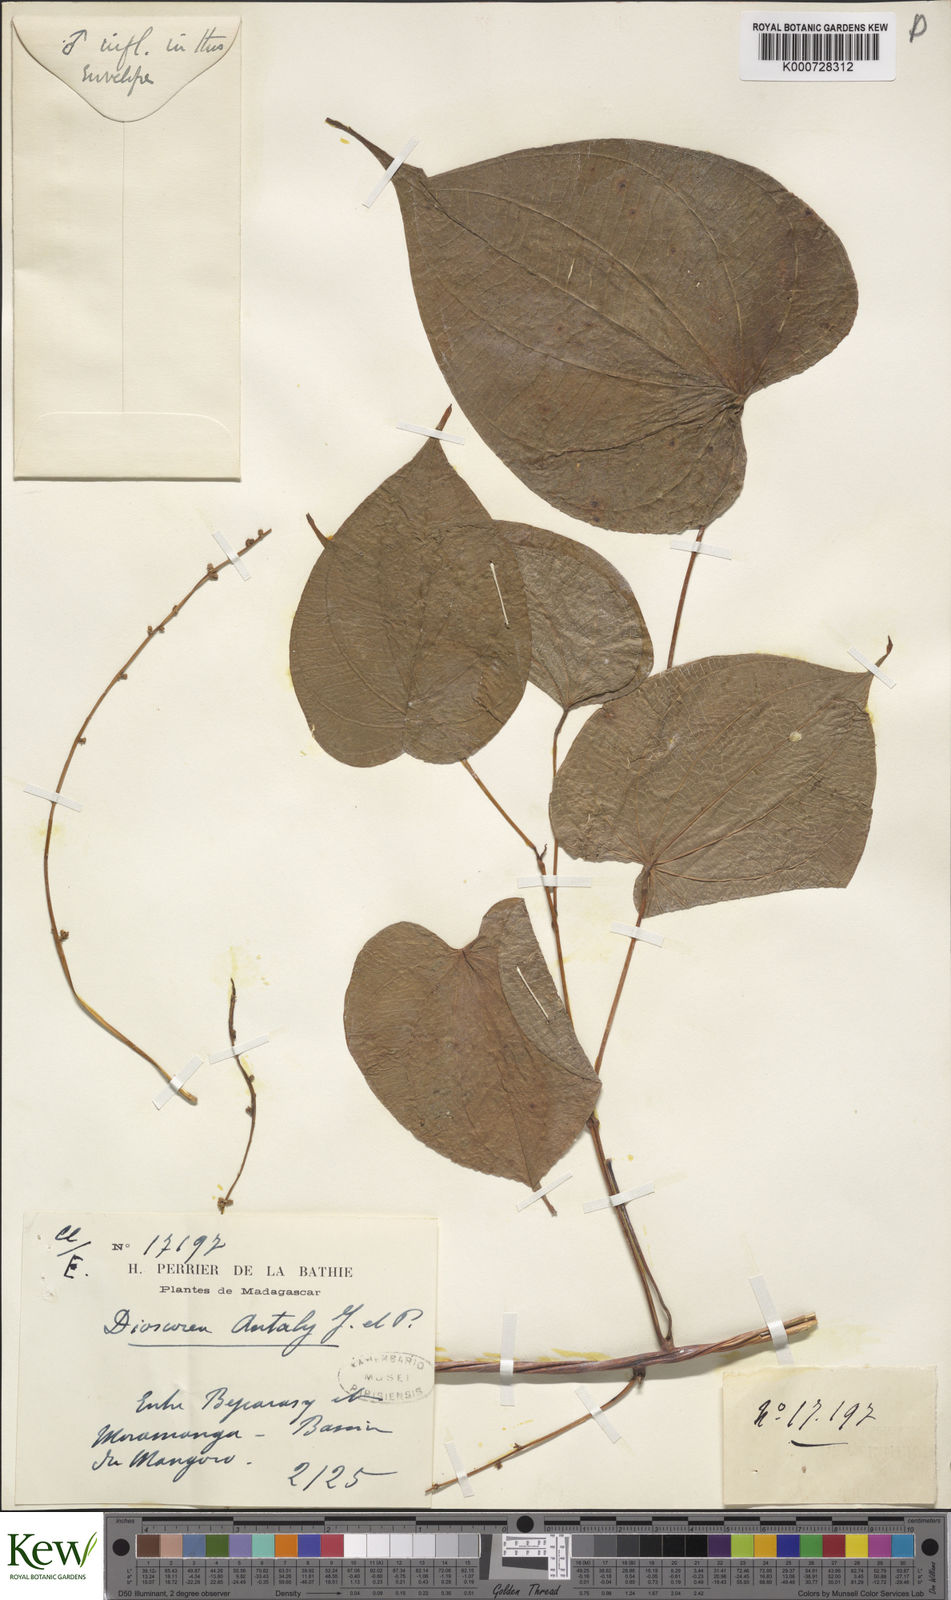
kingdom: Plantae
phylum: Tracheophyta
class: Liliopsida
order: Dioscoreales
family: Dioscoreaceae
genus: Dioscorea
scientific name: Dioscorea antaly
